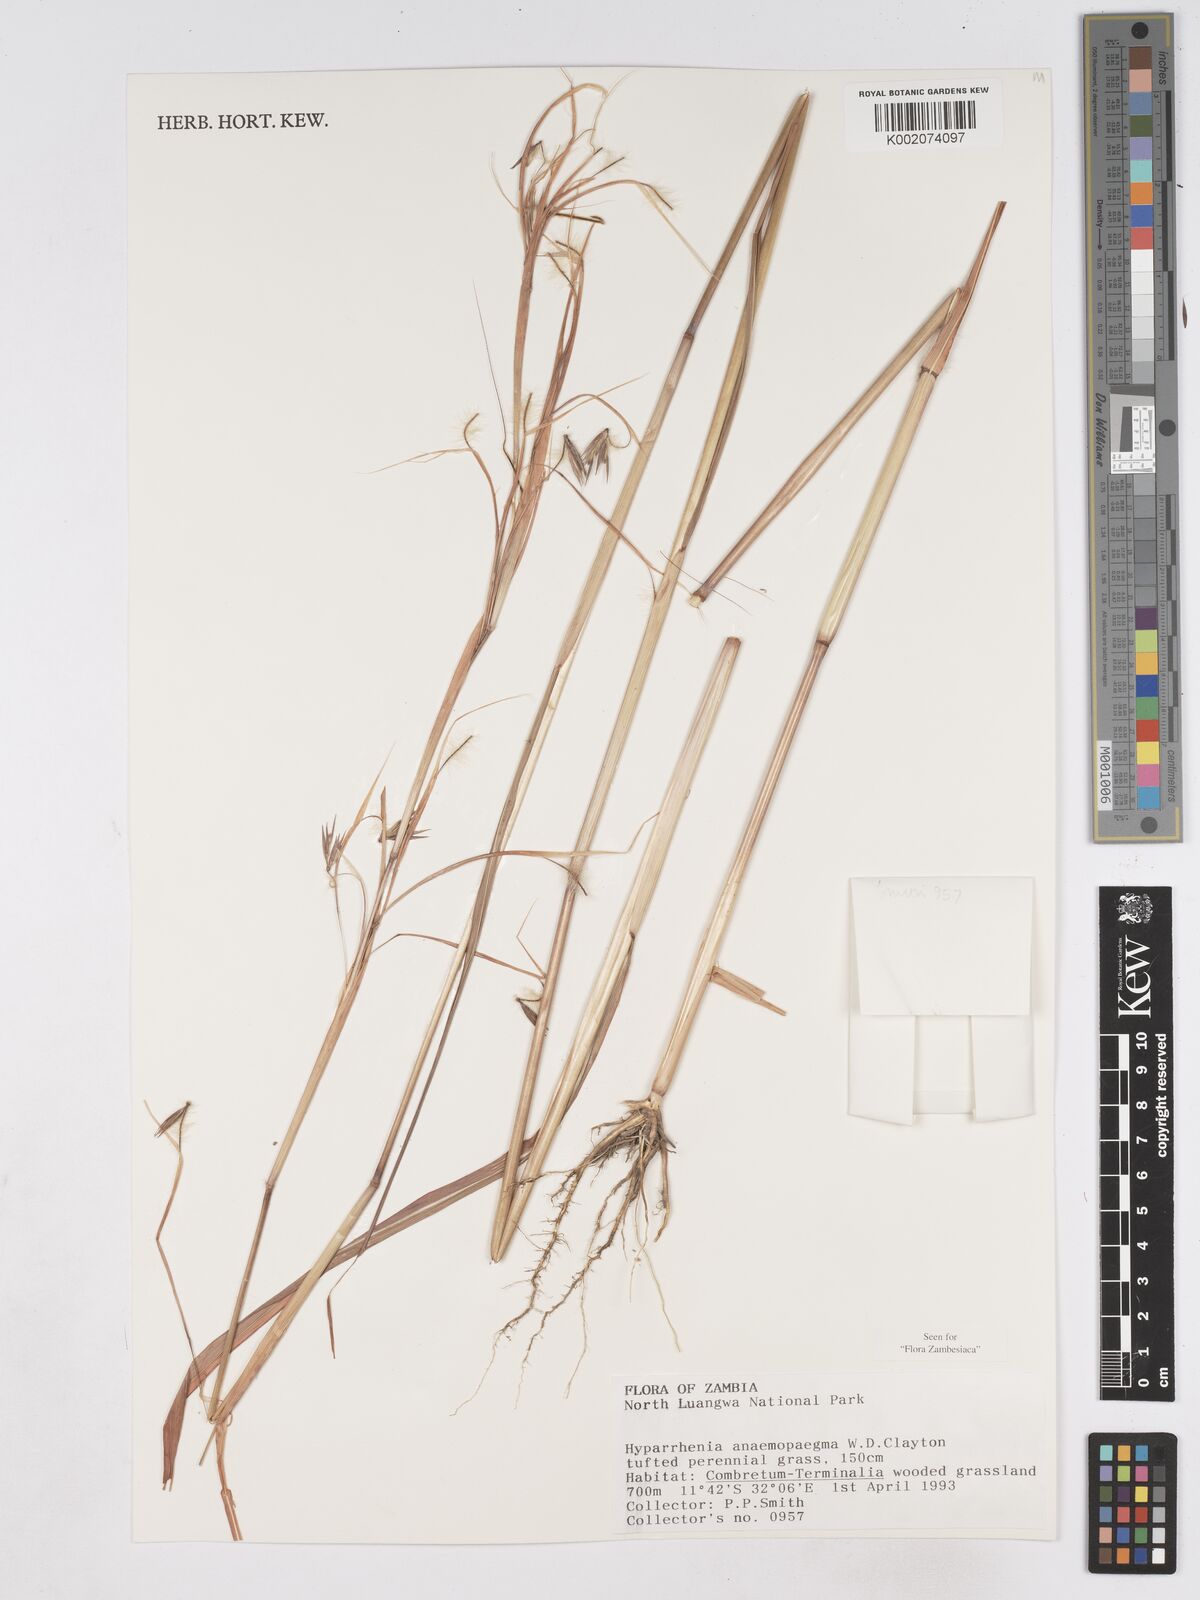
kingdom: Plantae
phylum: Tracheophyta
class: Liliopsida
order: Poales
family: Poaceae
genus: Hyparrhenia
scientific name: Hyparrhenia anemopaegma
